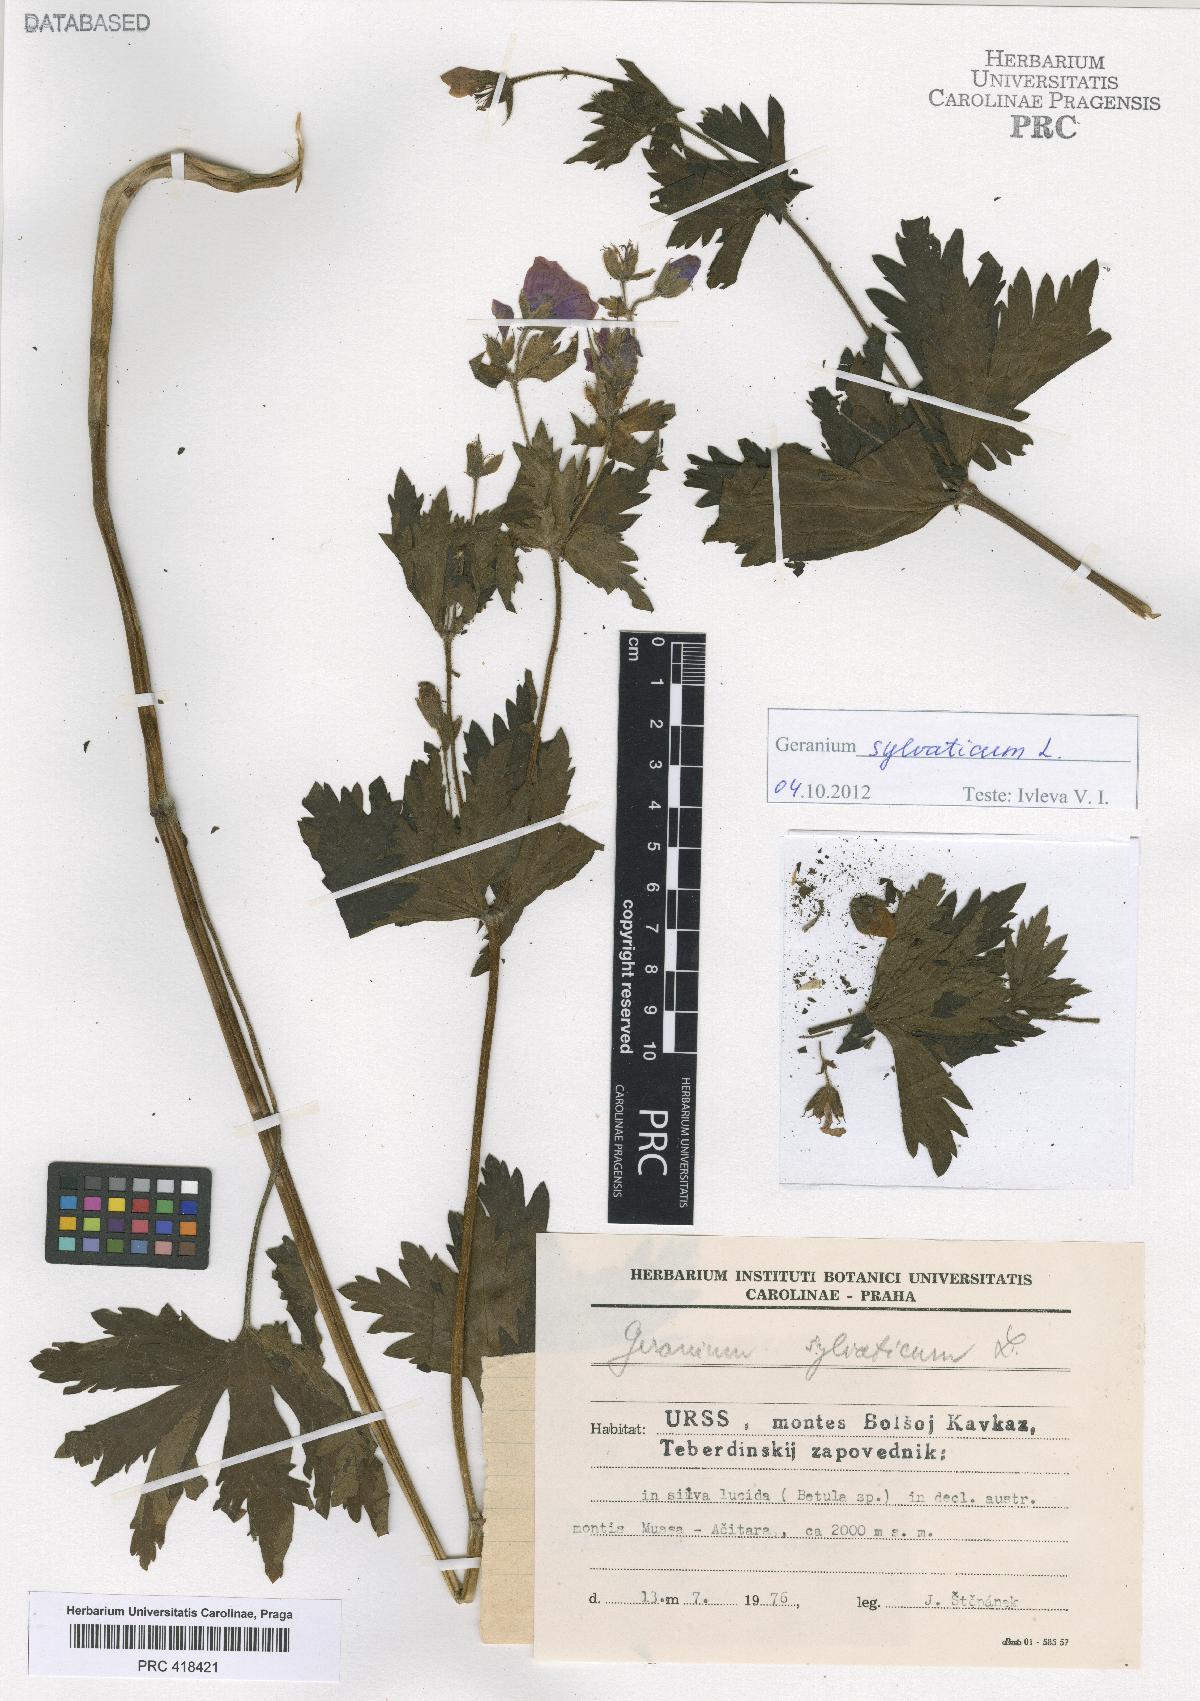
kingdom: Plantae
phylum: Tracheophyta
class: Magnoliopsida
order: Geraniales
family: Geraniaceae
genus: Geranium
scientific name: Geranium sylvaticum
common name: Wood crane's-bill
